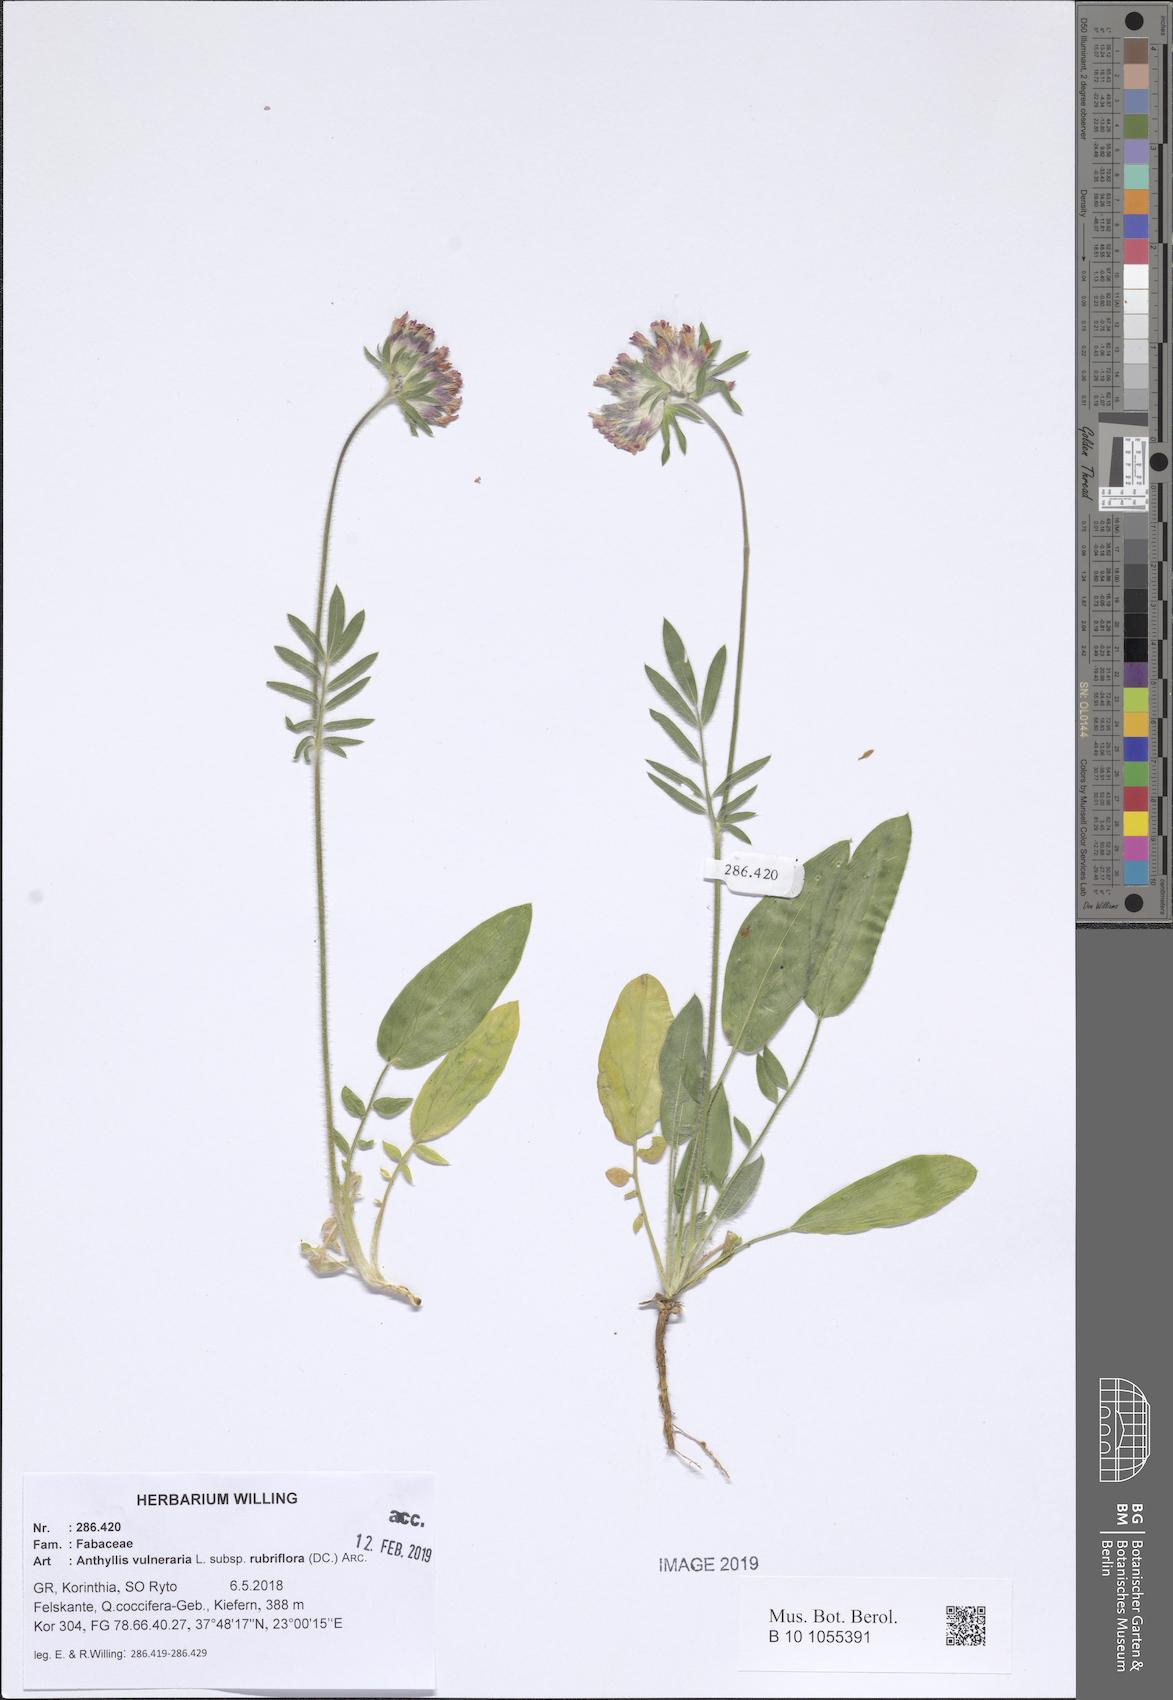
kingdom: Plantae
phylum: Tracheophyta
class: Magnoliopsida
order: Fabales
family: Fabaceae
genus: Anthyllis
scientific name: Anthyllis vulneraria
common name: Kidney vetch
